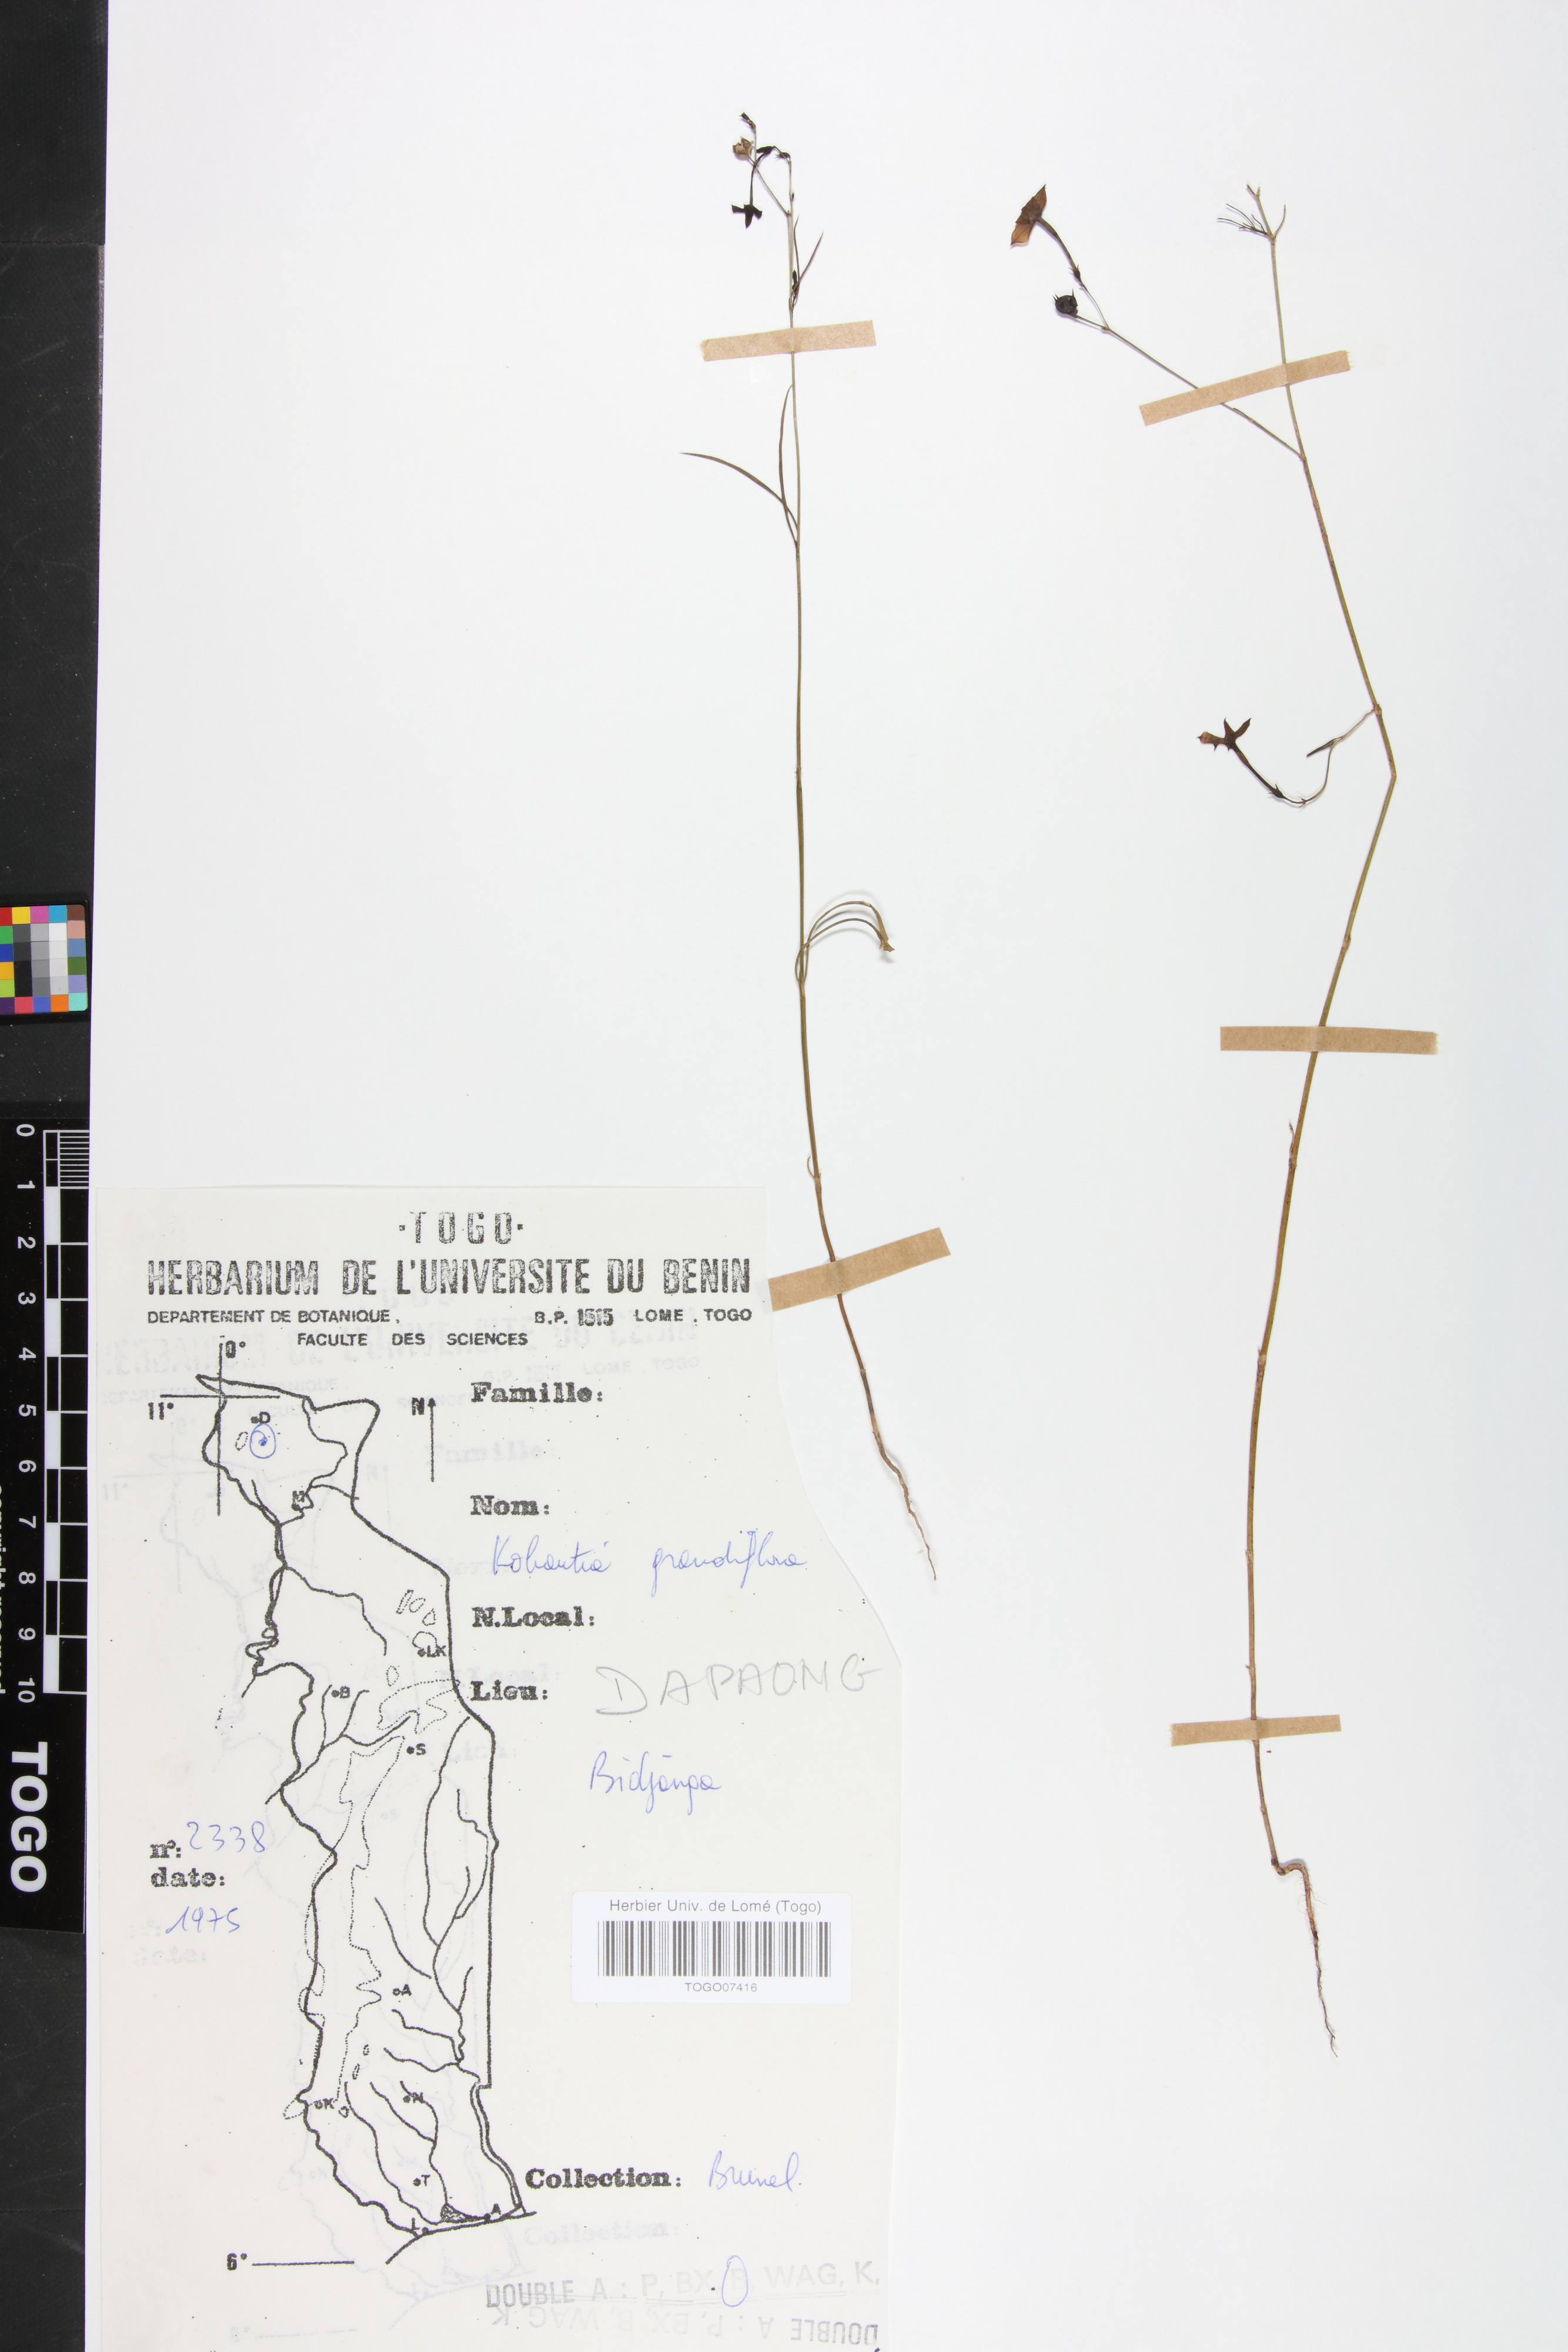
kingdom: Plantae
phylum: Tracheophyta
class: Magnoliopsida
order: Gentianales
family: Rubiaceae
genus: Kohautia
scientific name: Kohautia grandiflora
